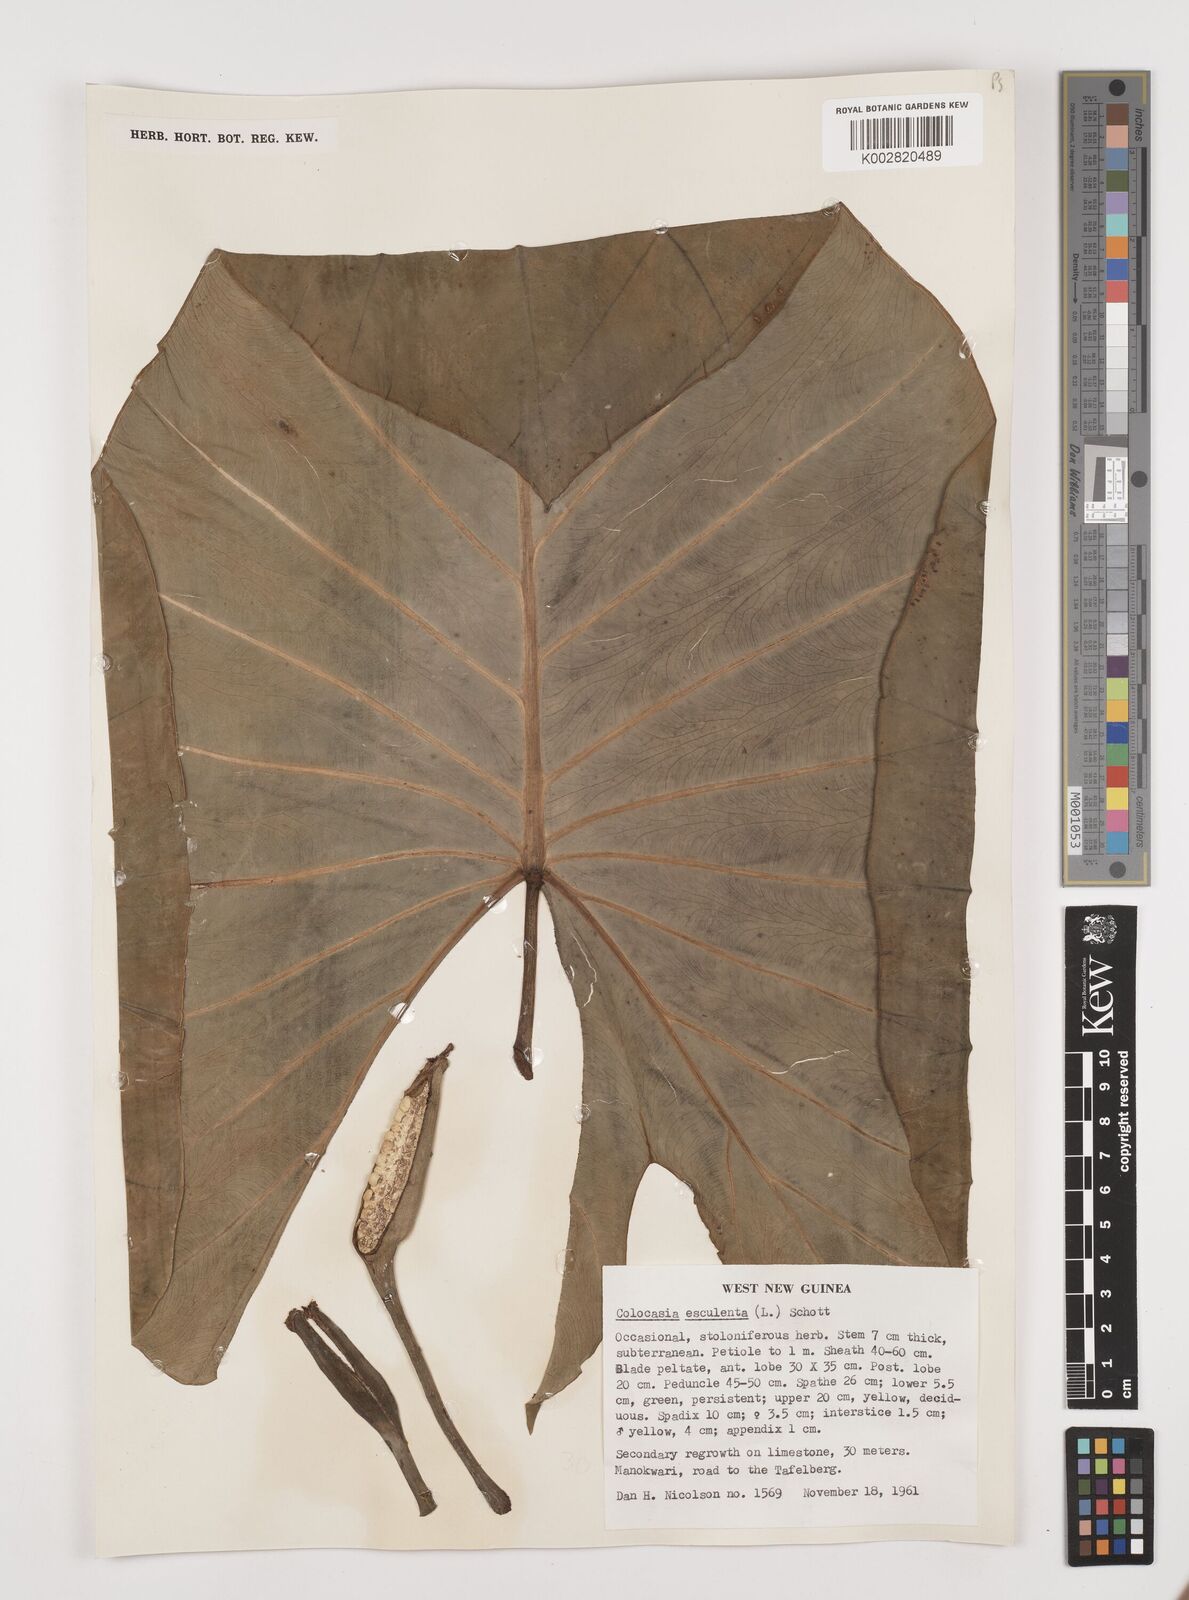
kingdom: Plantae
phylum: Tracheophyta
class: Liliopsida
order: Alismatales
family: Araceae
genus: Colocasia
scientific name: Colocasia esculenta
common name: Taro
